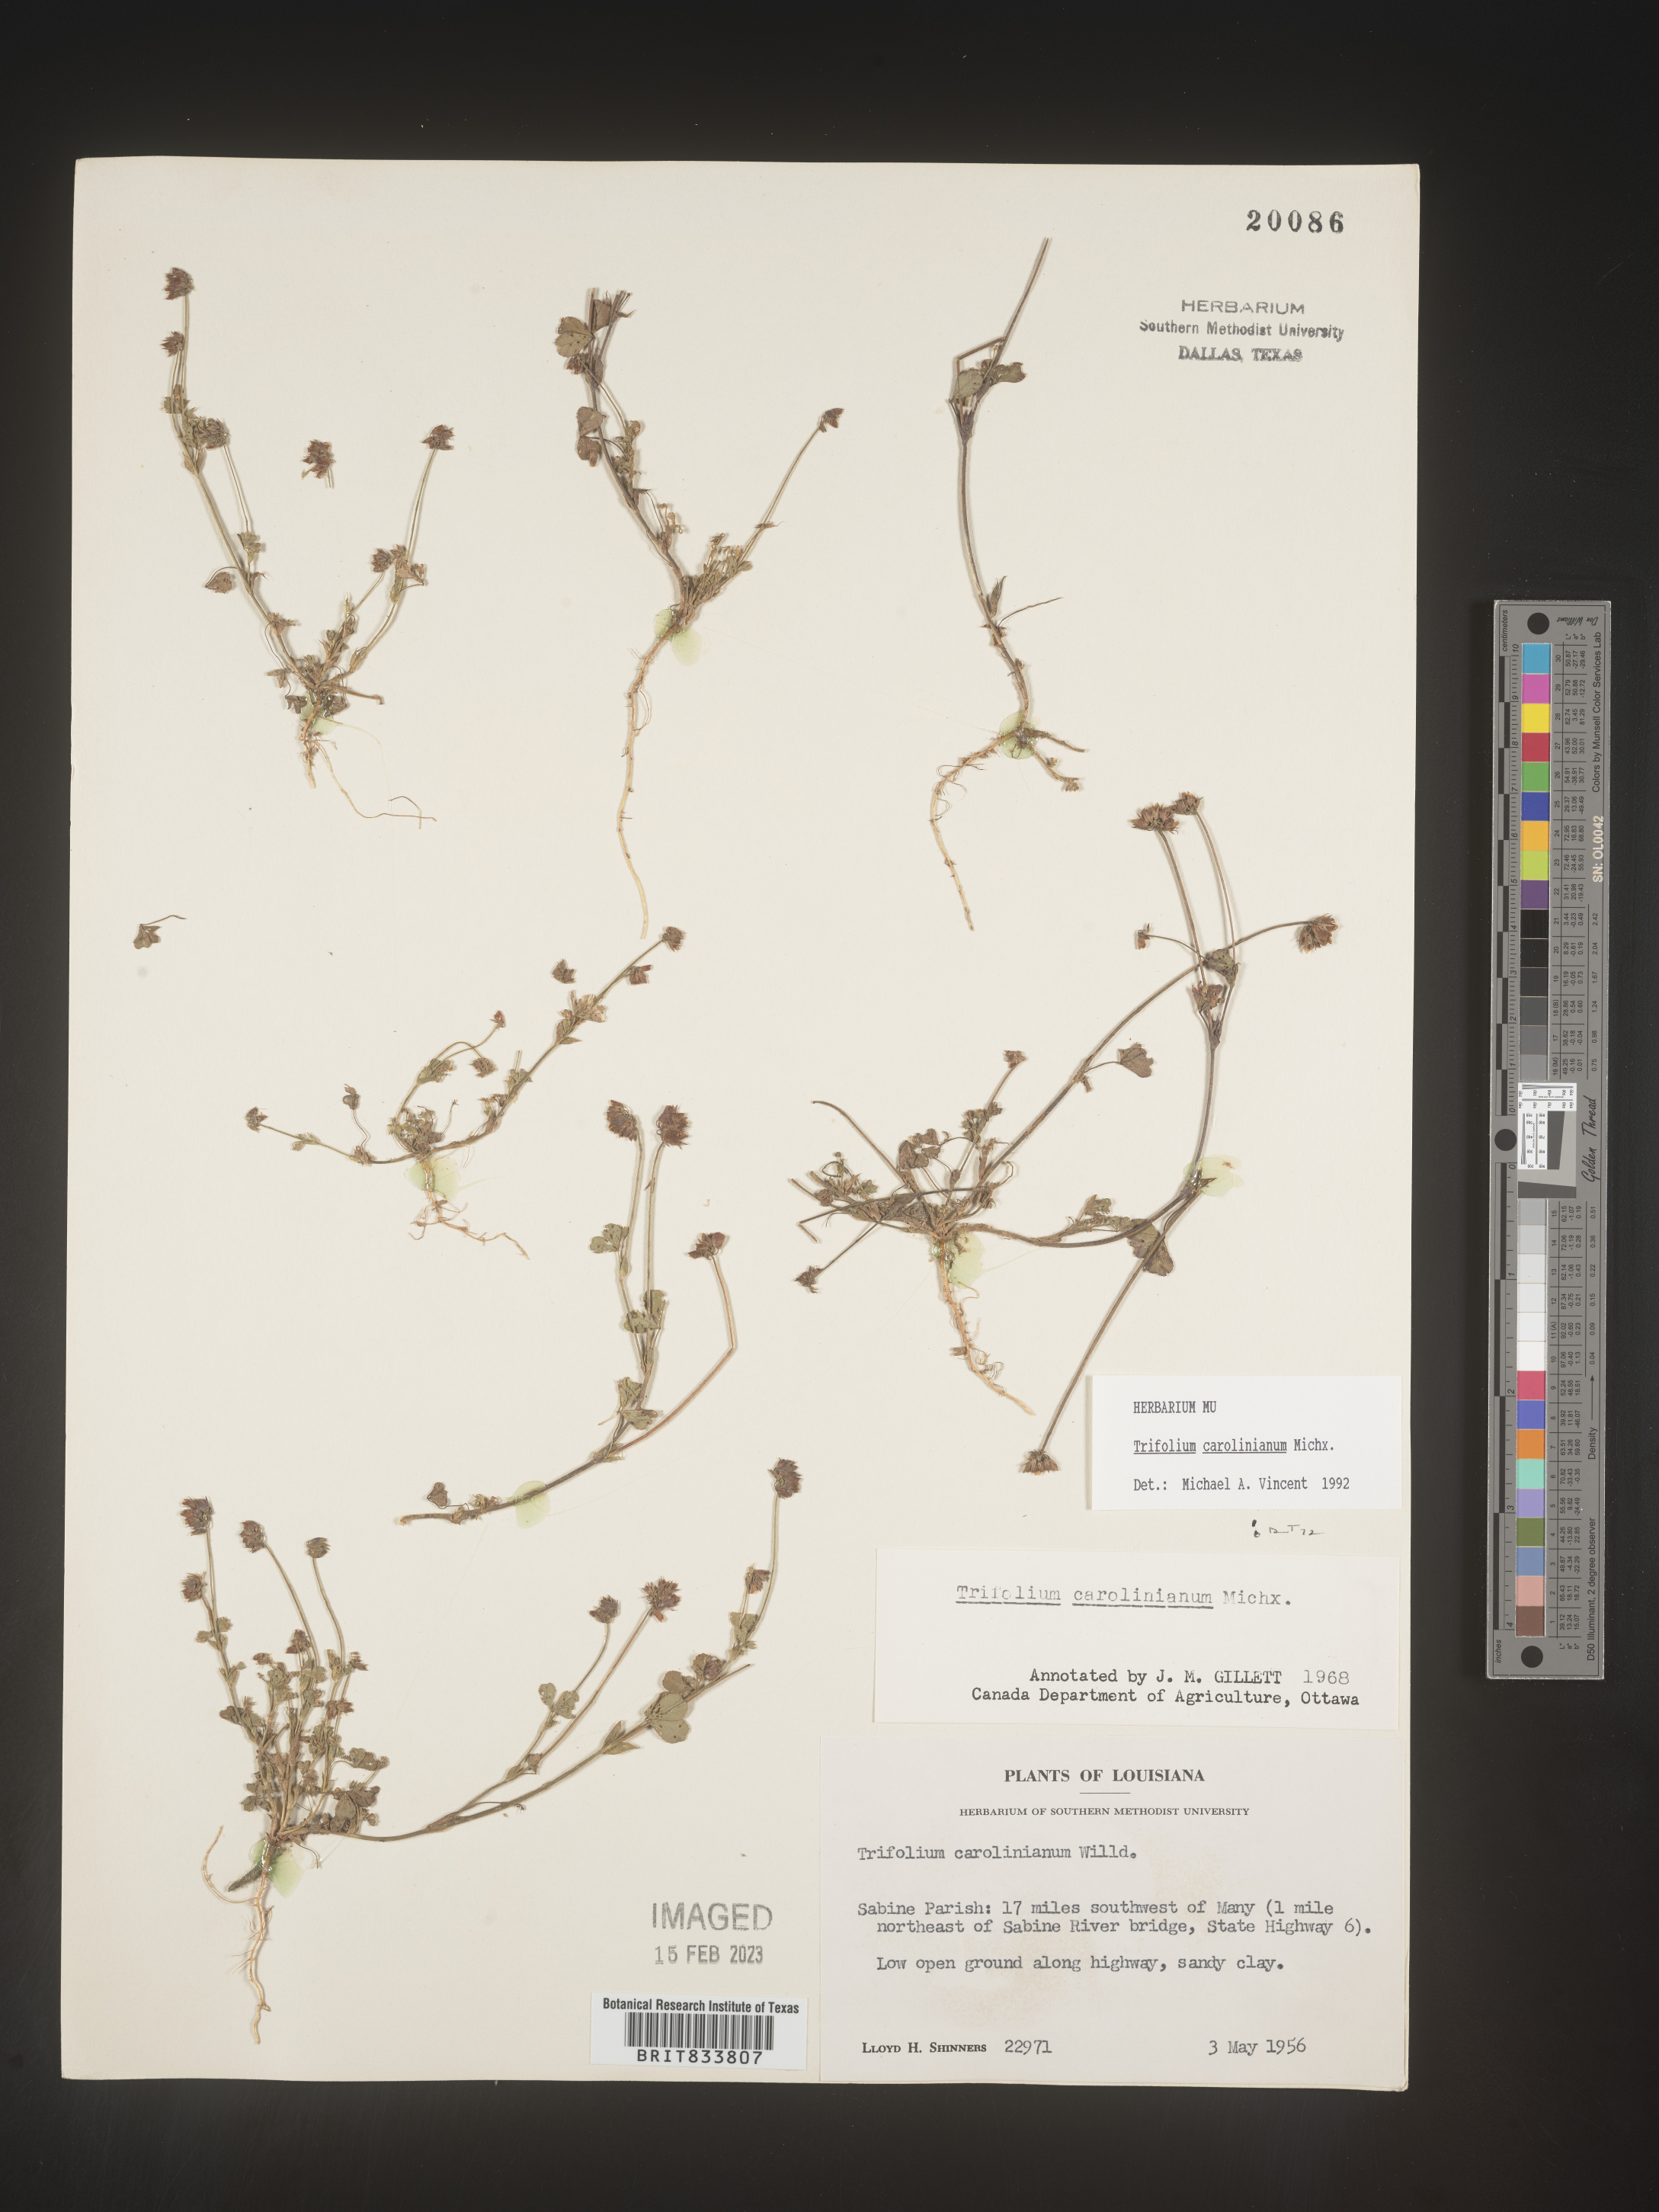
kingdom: Plantae
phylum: Tracheophyta
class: Magnoliopsida
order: Fabales
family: Fabaceae
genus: Trifolium
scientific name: Trifolium carolinianum
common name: Wild white clover
